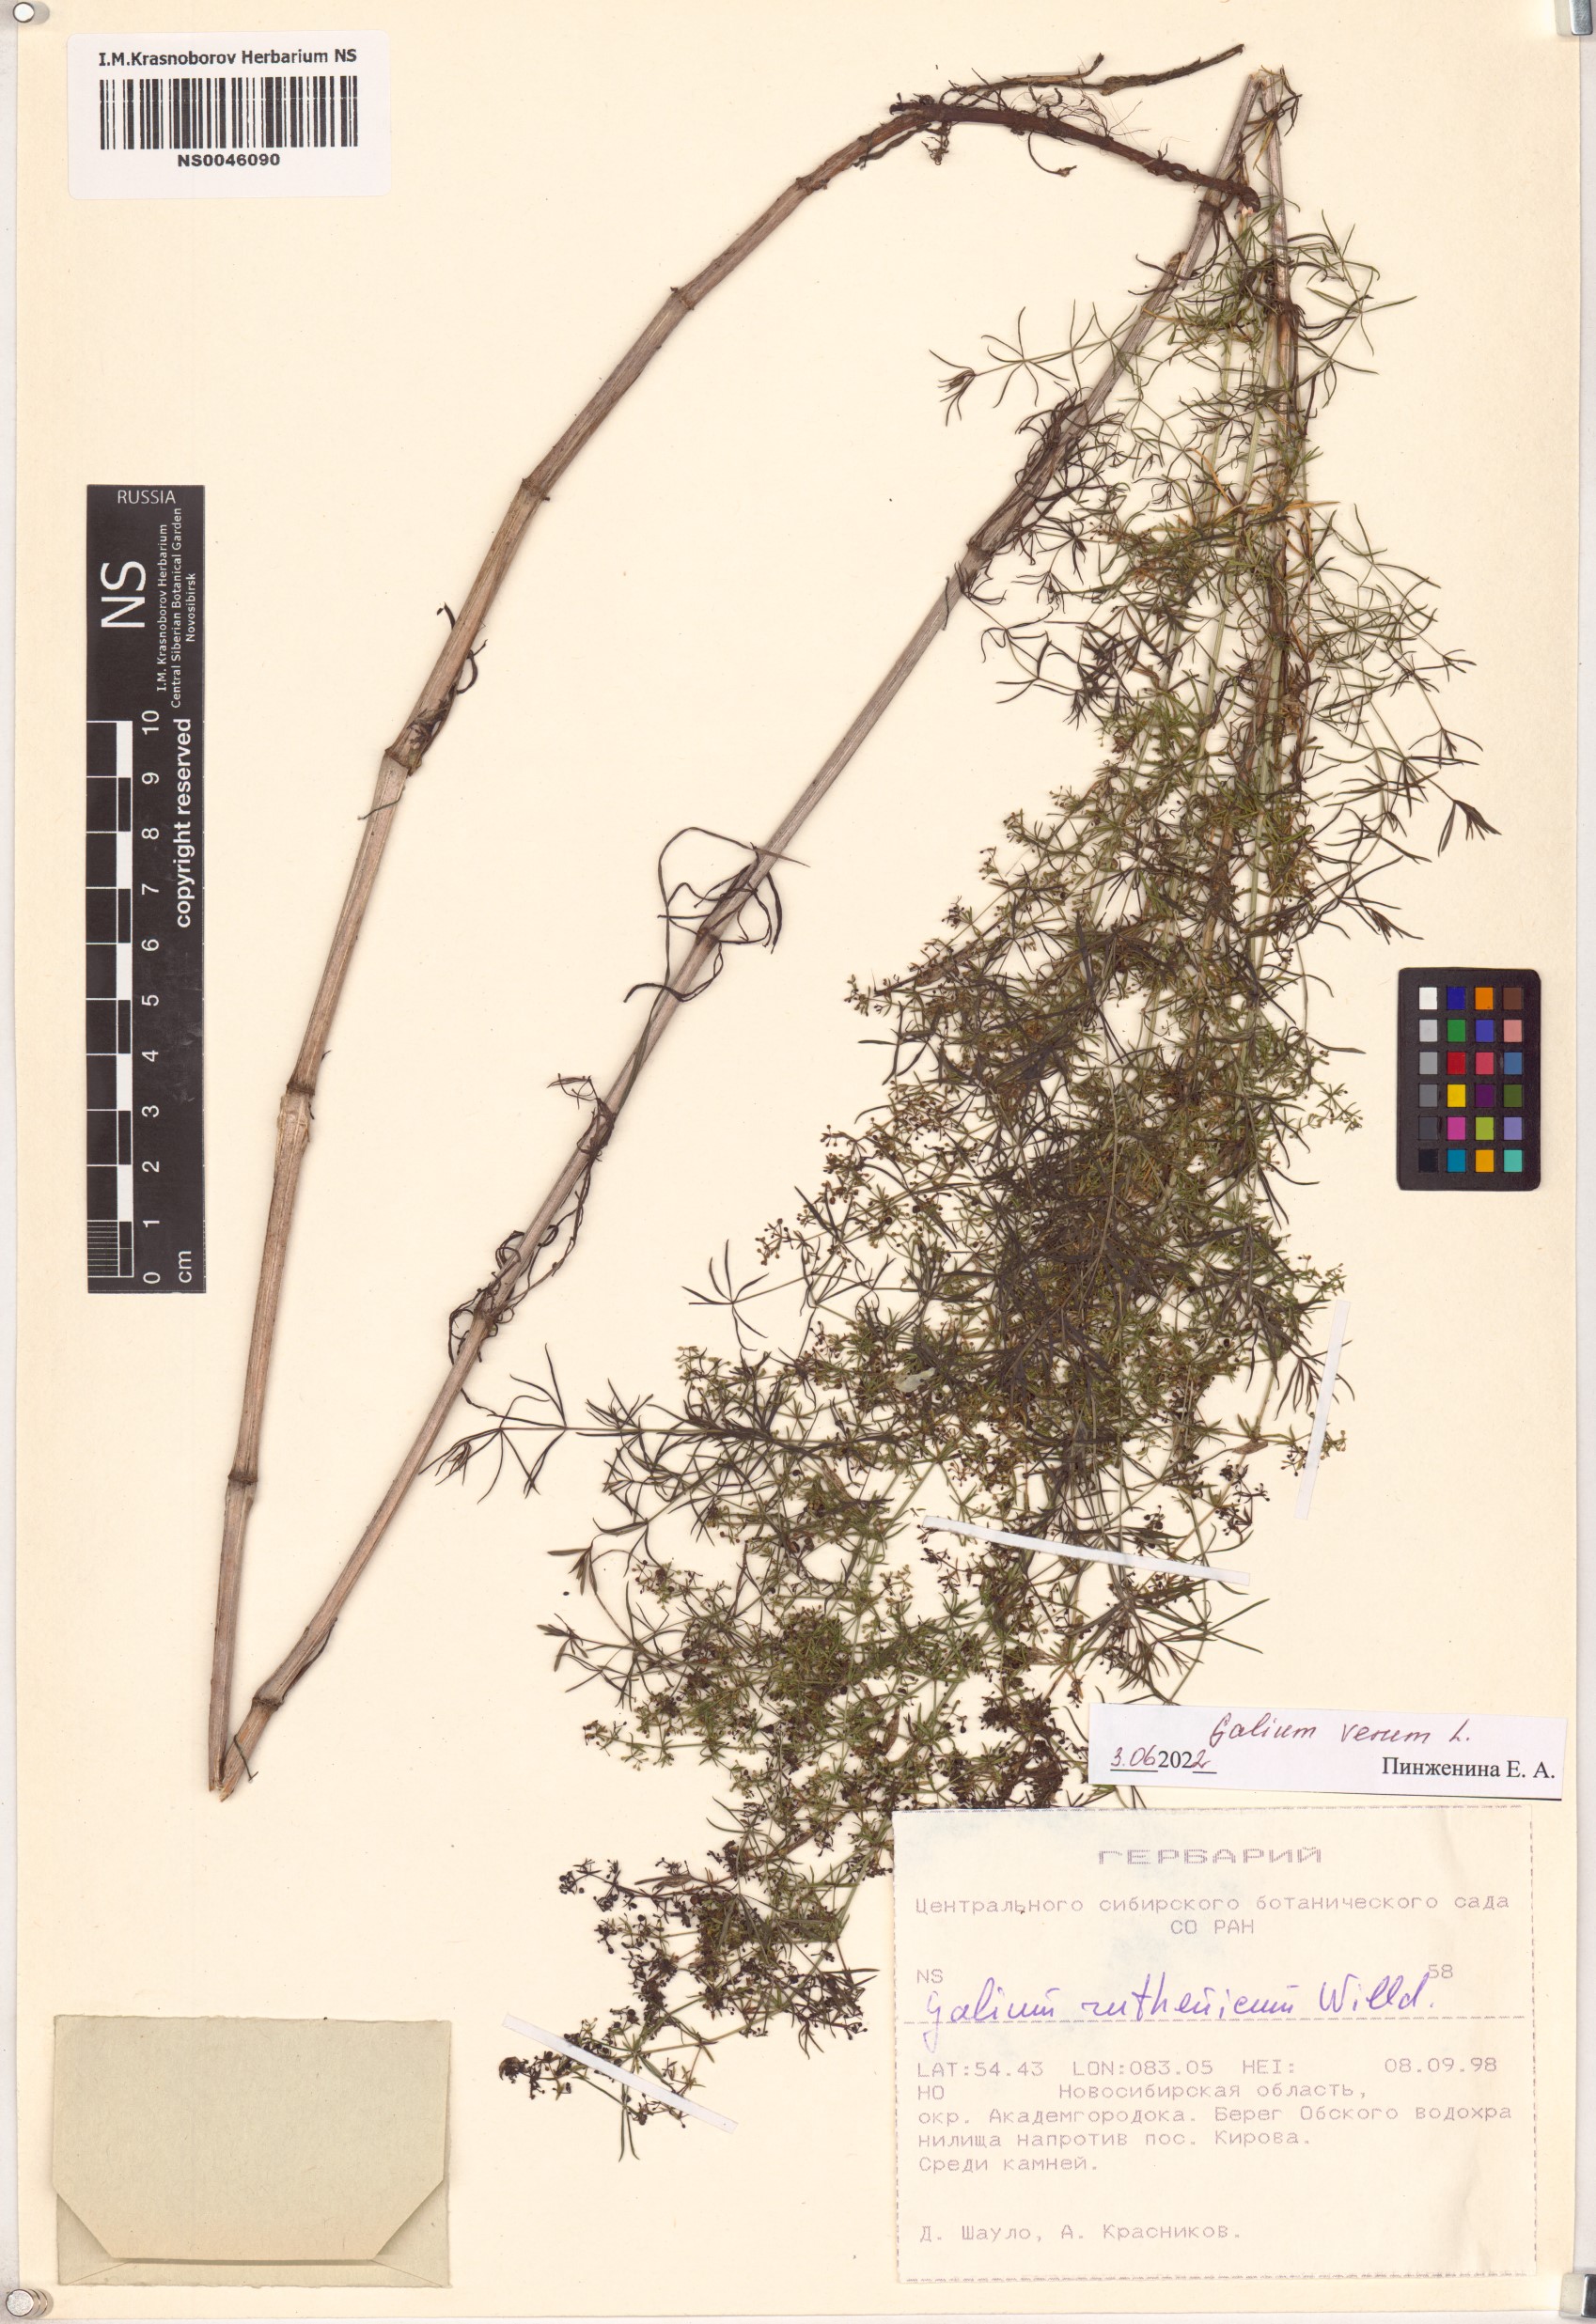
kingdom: Plantae
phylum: Tracheophyta
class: Magnoliopsida
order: Gentianales
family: Rubiaceae
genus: Galium
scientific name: Galium verum
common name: Lady's bedstraw
